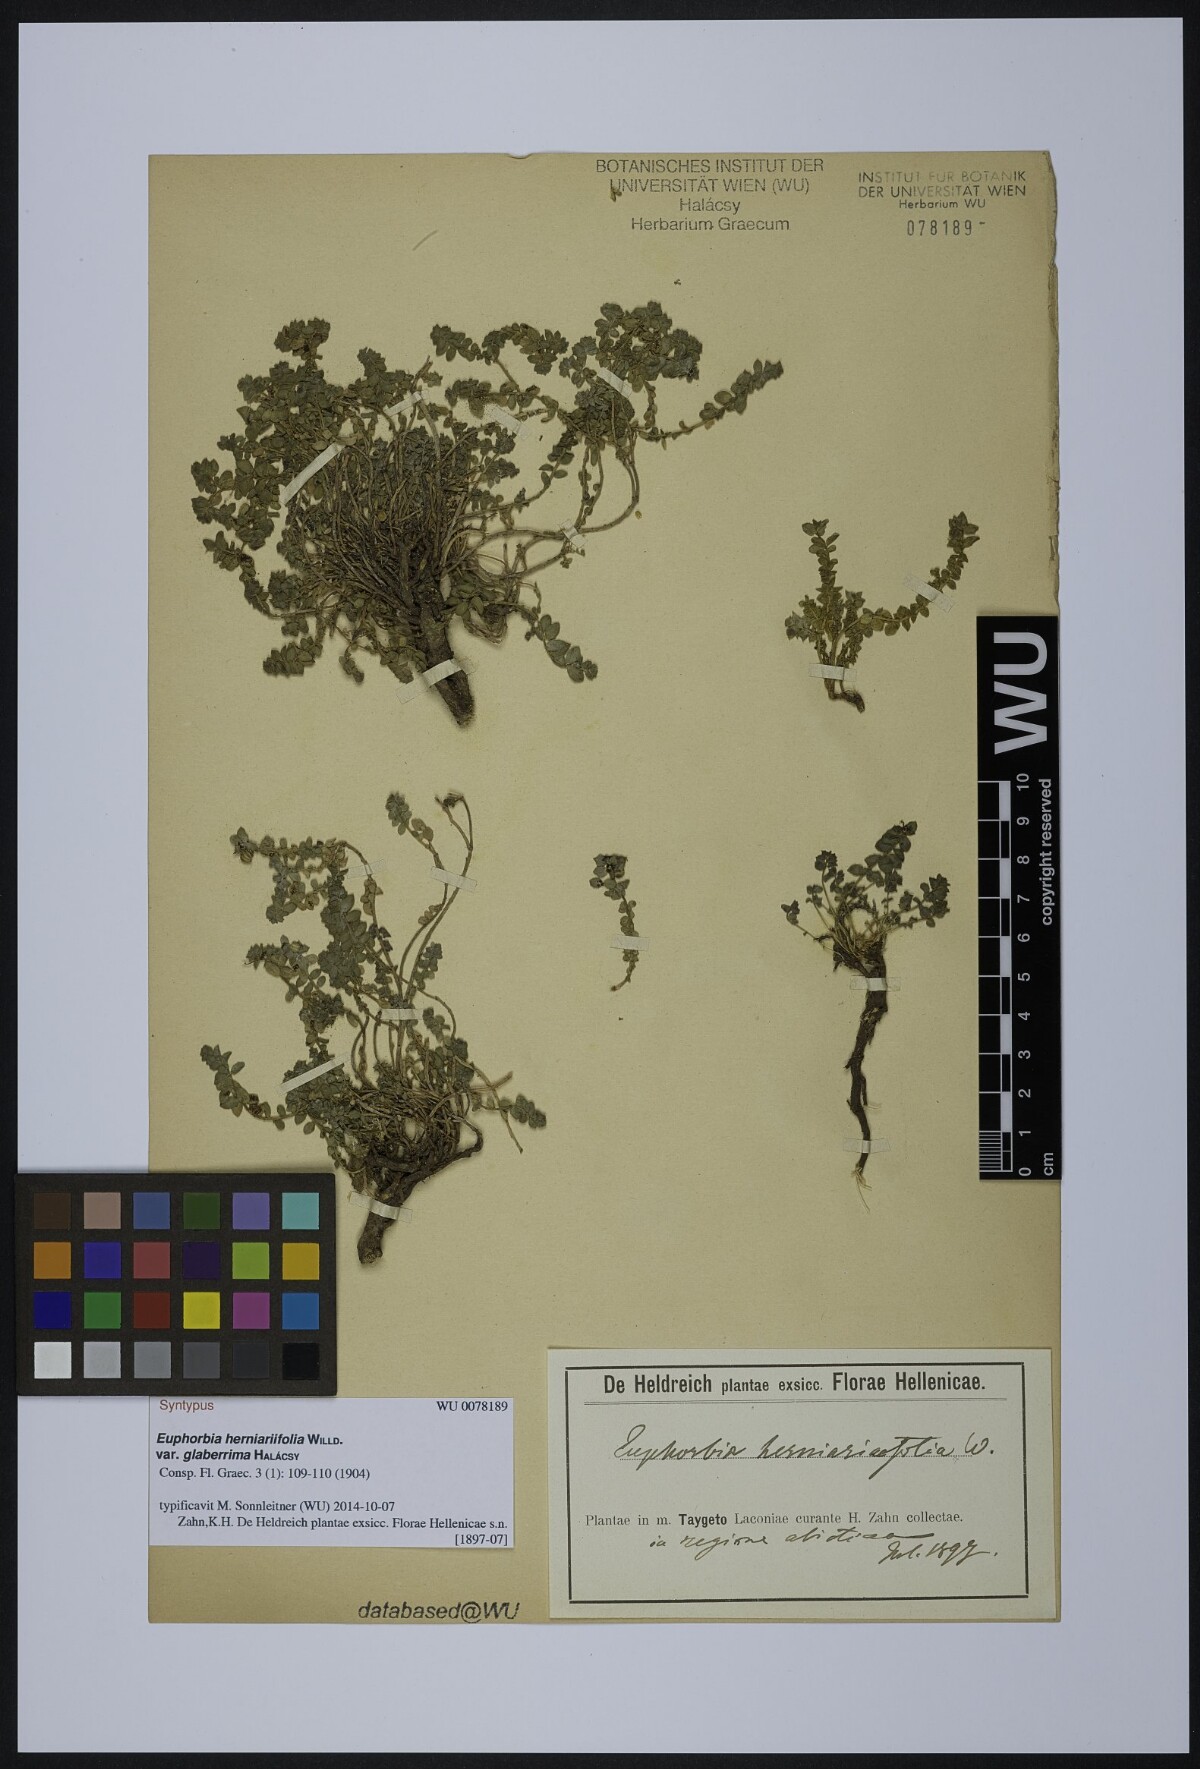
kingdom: Plantae
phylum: Tracheophyta
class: Magnoliopsida
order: Malpighiales
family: Euphorbiaceae
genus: Euphorbia
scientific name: Euphorbia herniariifolia
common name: Herniaria-leaf spurge
